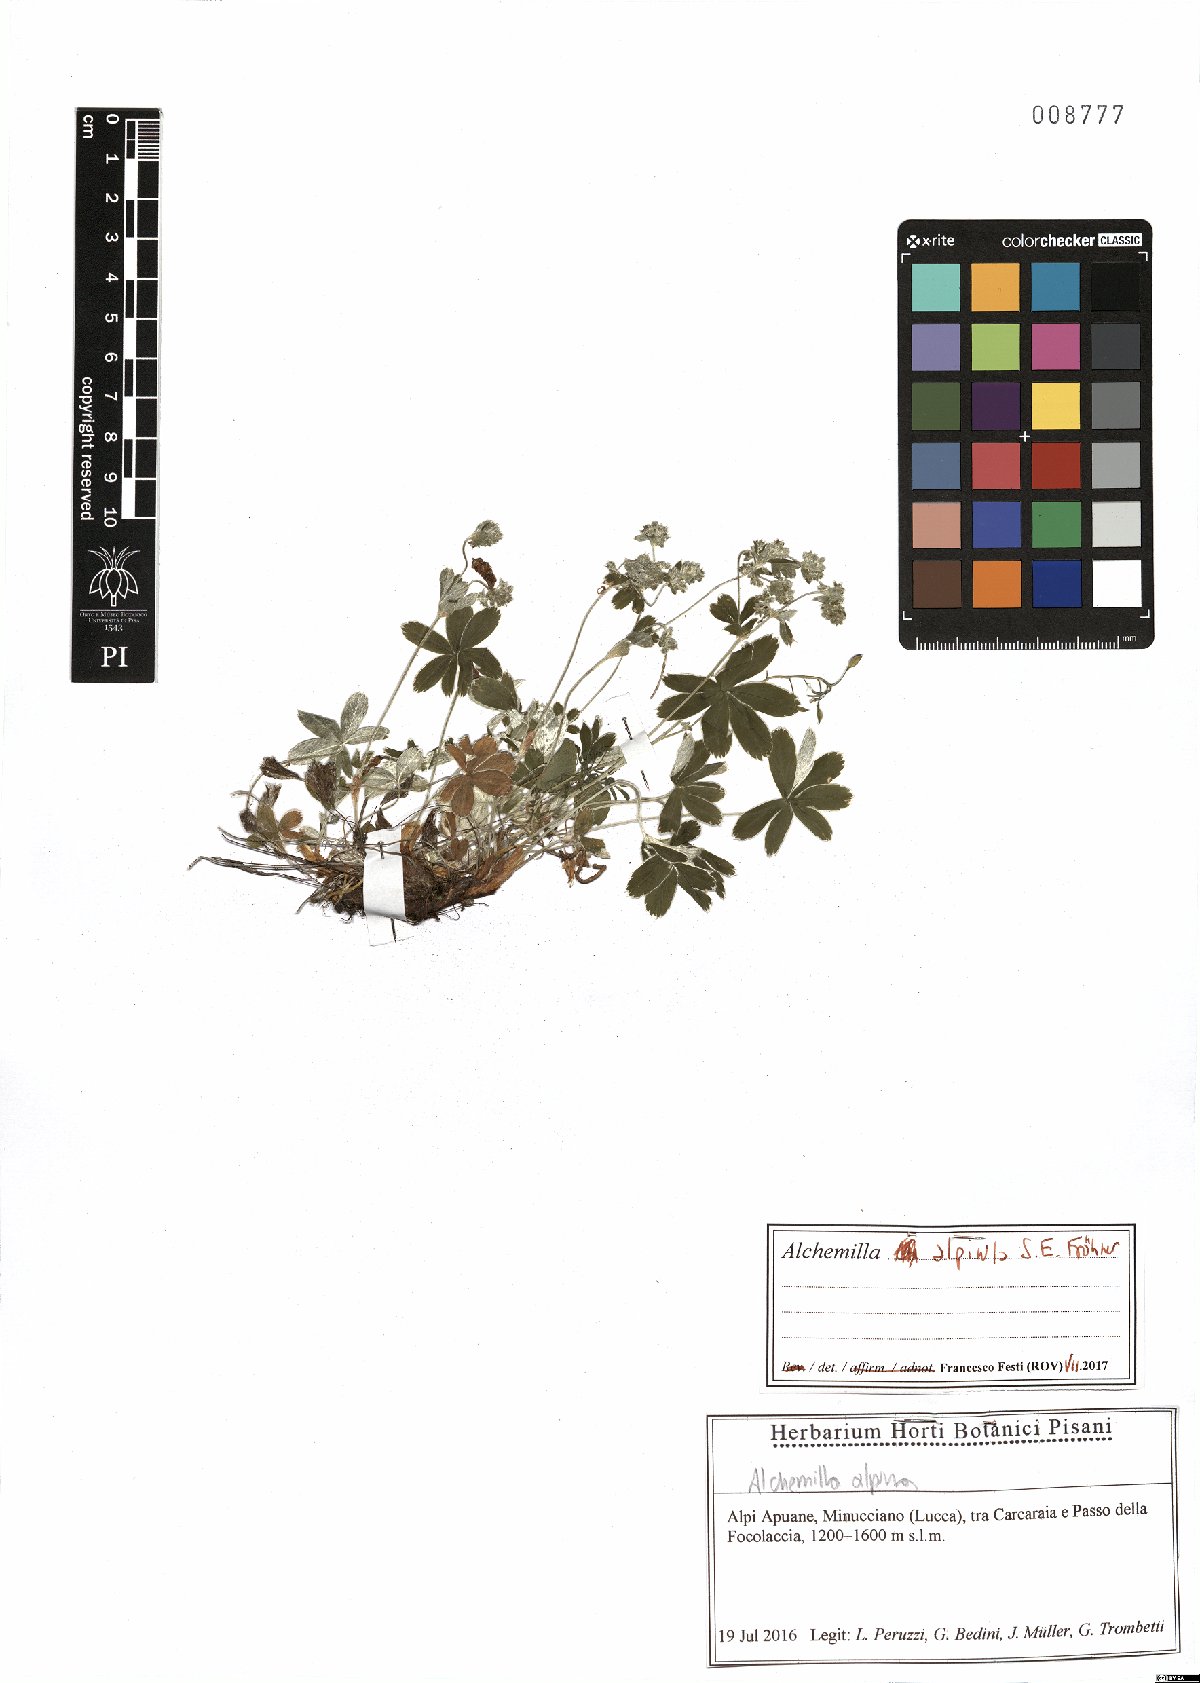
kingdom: Plantae
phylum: Tracheophyta
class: Magnoliopsida
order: Rosales
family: Rosaceae
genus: Alchemilla
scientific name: Alchemilla alpinula
